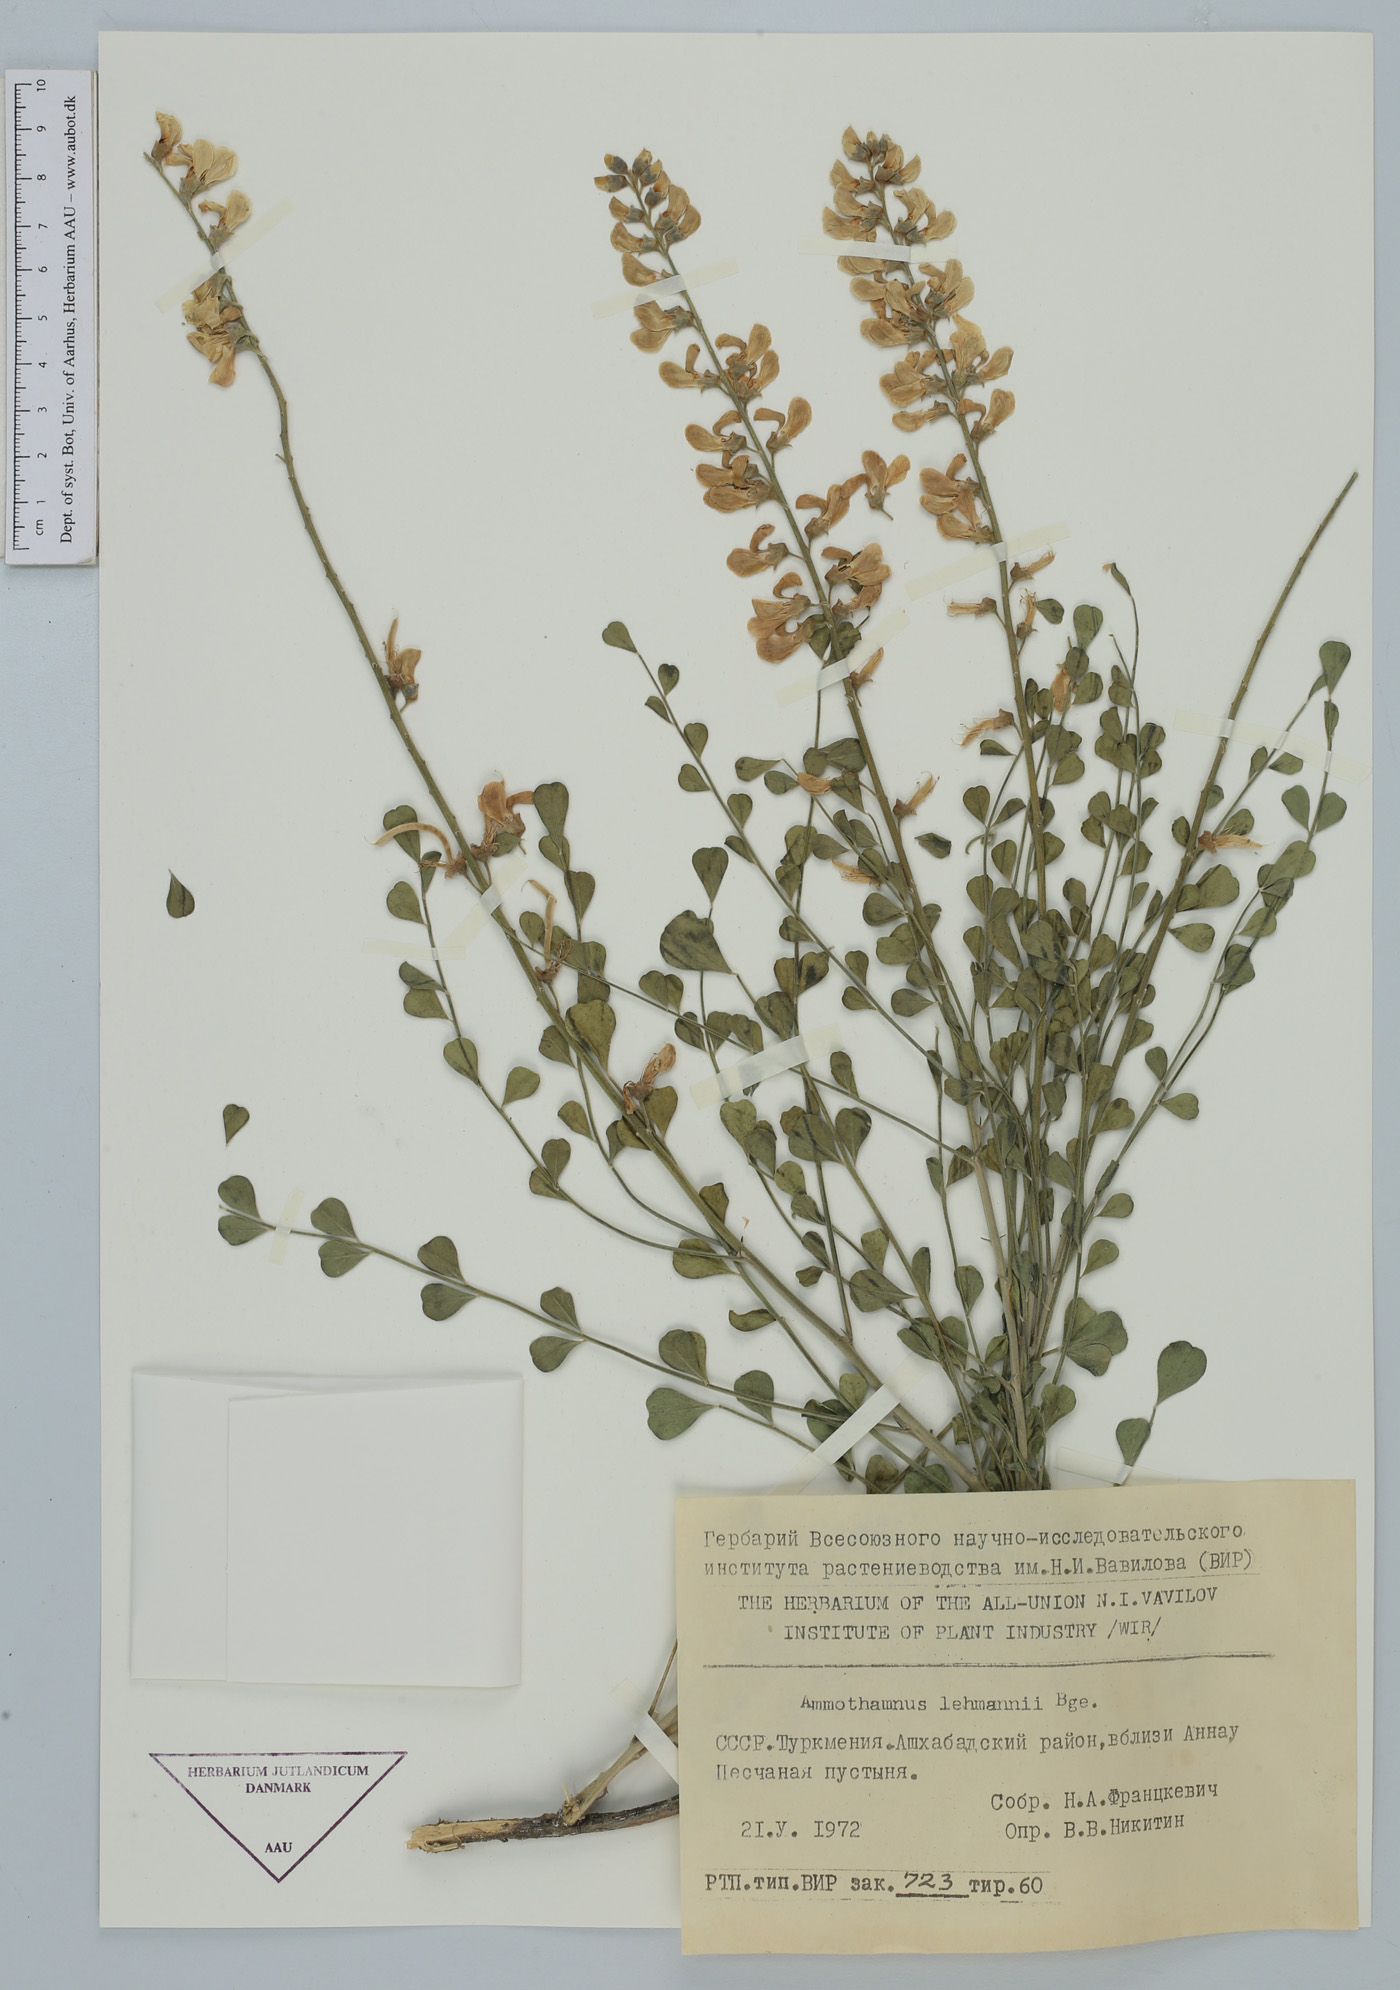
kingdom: Plantae
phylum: Tracheophyta
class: Magnoliopsida
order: Fabales
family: Fabaceae
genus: Sophora
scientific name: Sophora lehmannii
